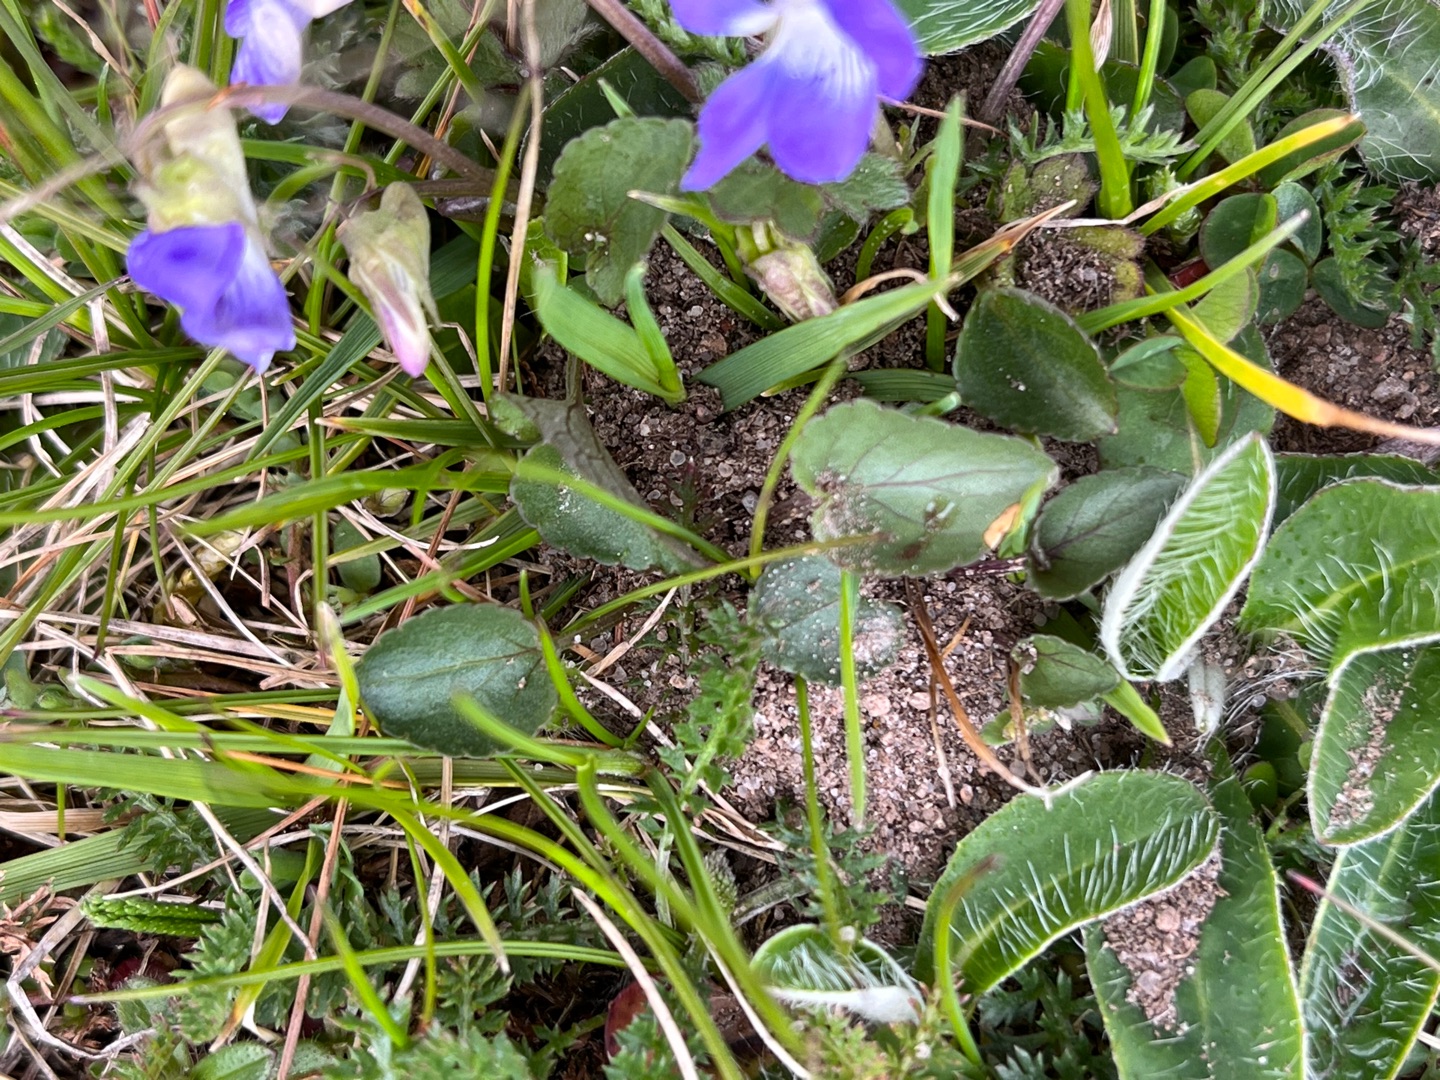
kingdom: Plantae
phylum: Tracheophyta
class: Magnoliopsida
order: Malpighiales
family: Violaceae
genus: Viola
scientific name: Viola canina
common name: Hunde-viol
